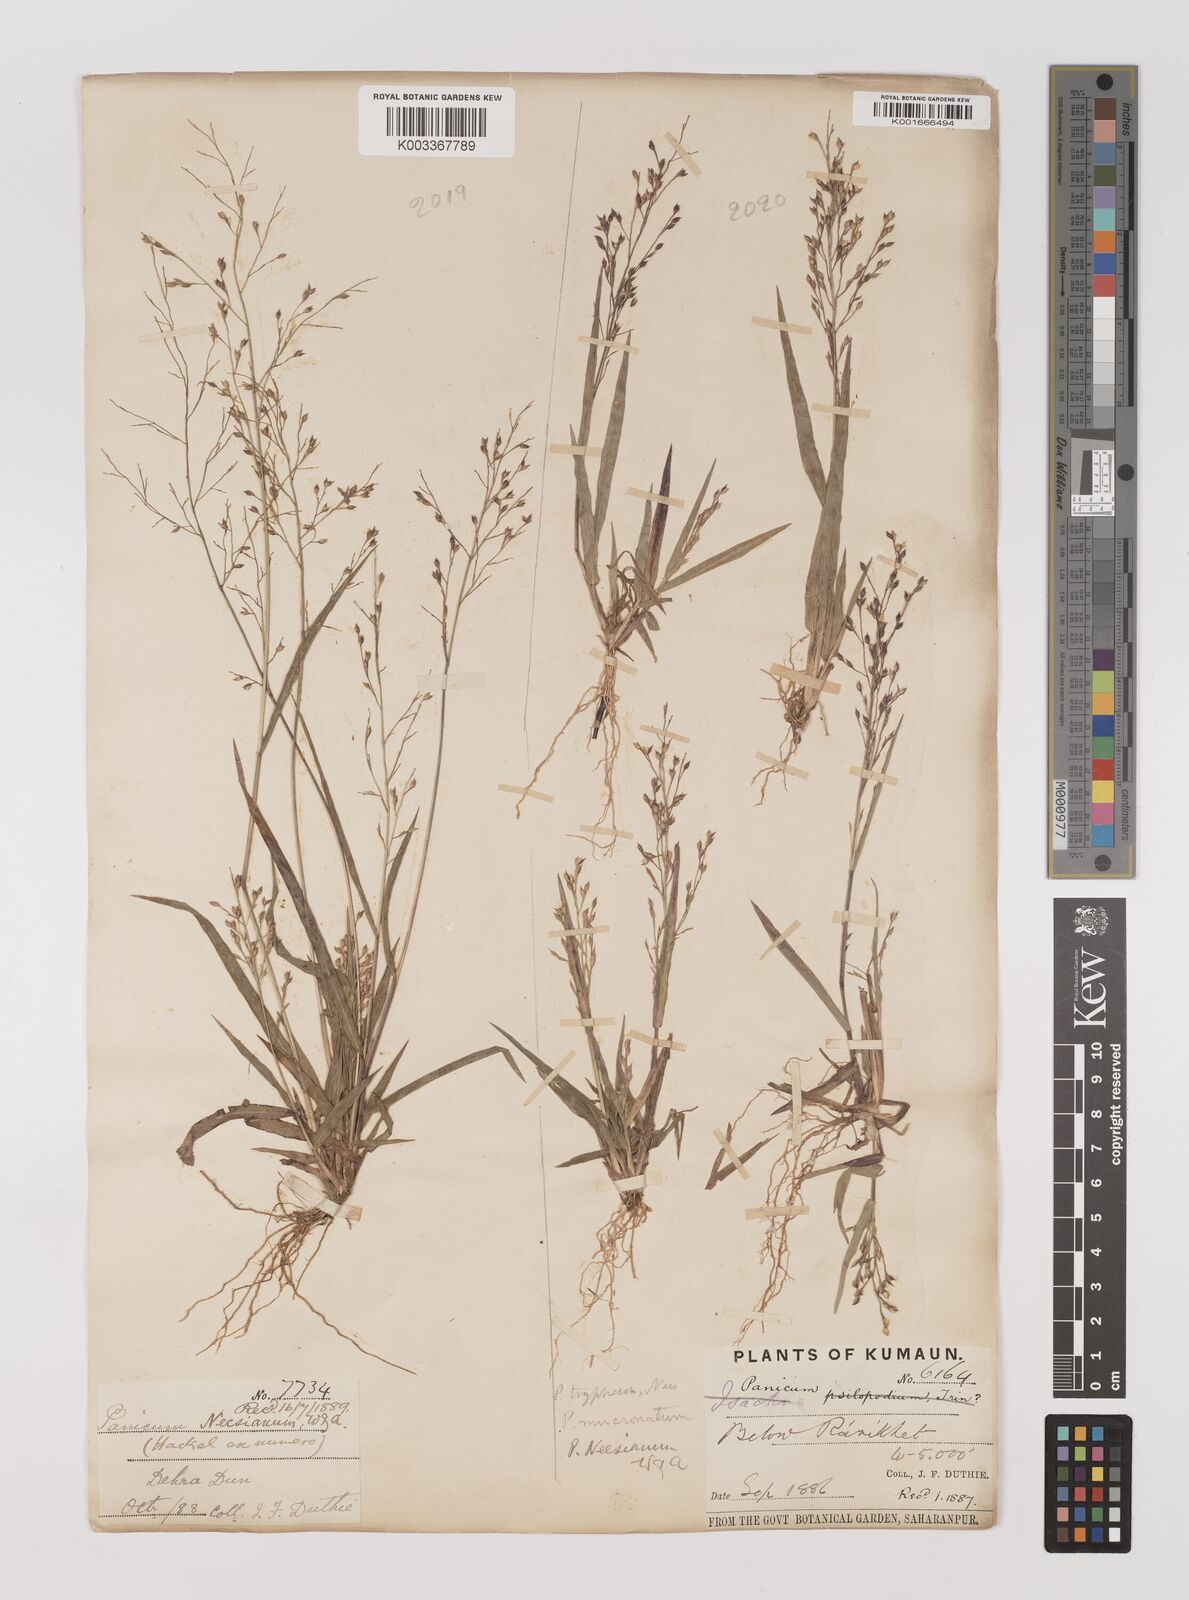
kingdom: Plantae
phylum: Tracheophyta
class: Liliopsida
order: Poales
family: Poaceae
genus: Panicum
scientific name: Panicum curviflorum
